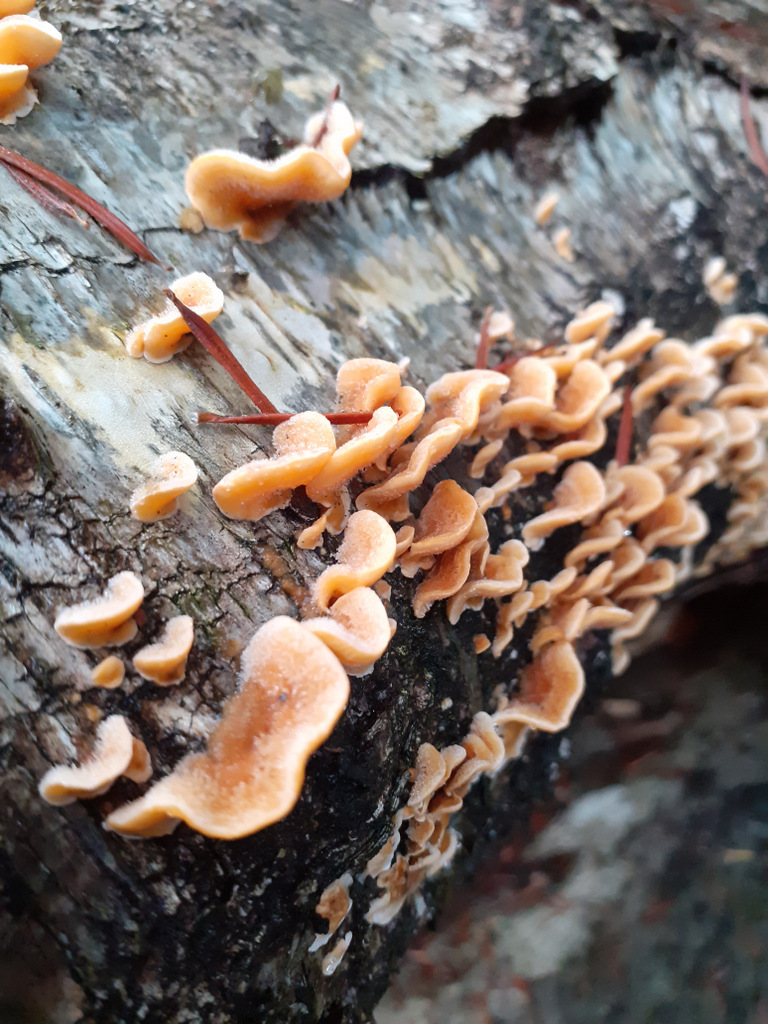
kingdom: Fungi
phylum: Basidiomycota
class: Agaricomycetes
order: Russulales
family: Stereaceae
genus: Stereum
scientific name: Stereum hirsutum
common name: håret lædersvamp
